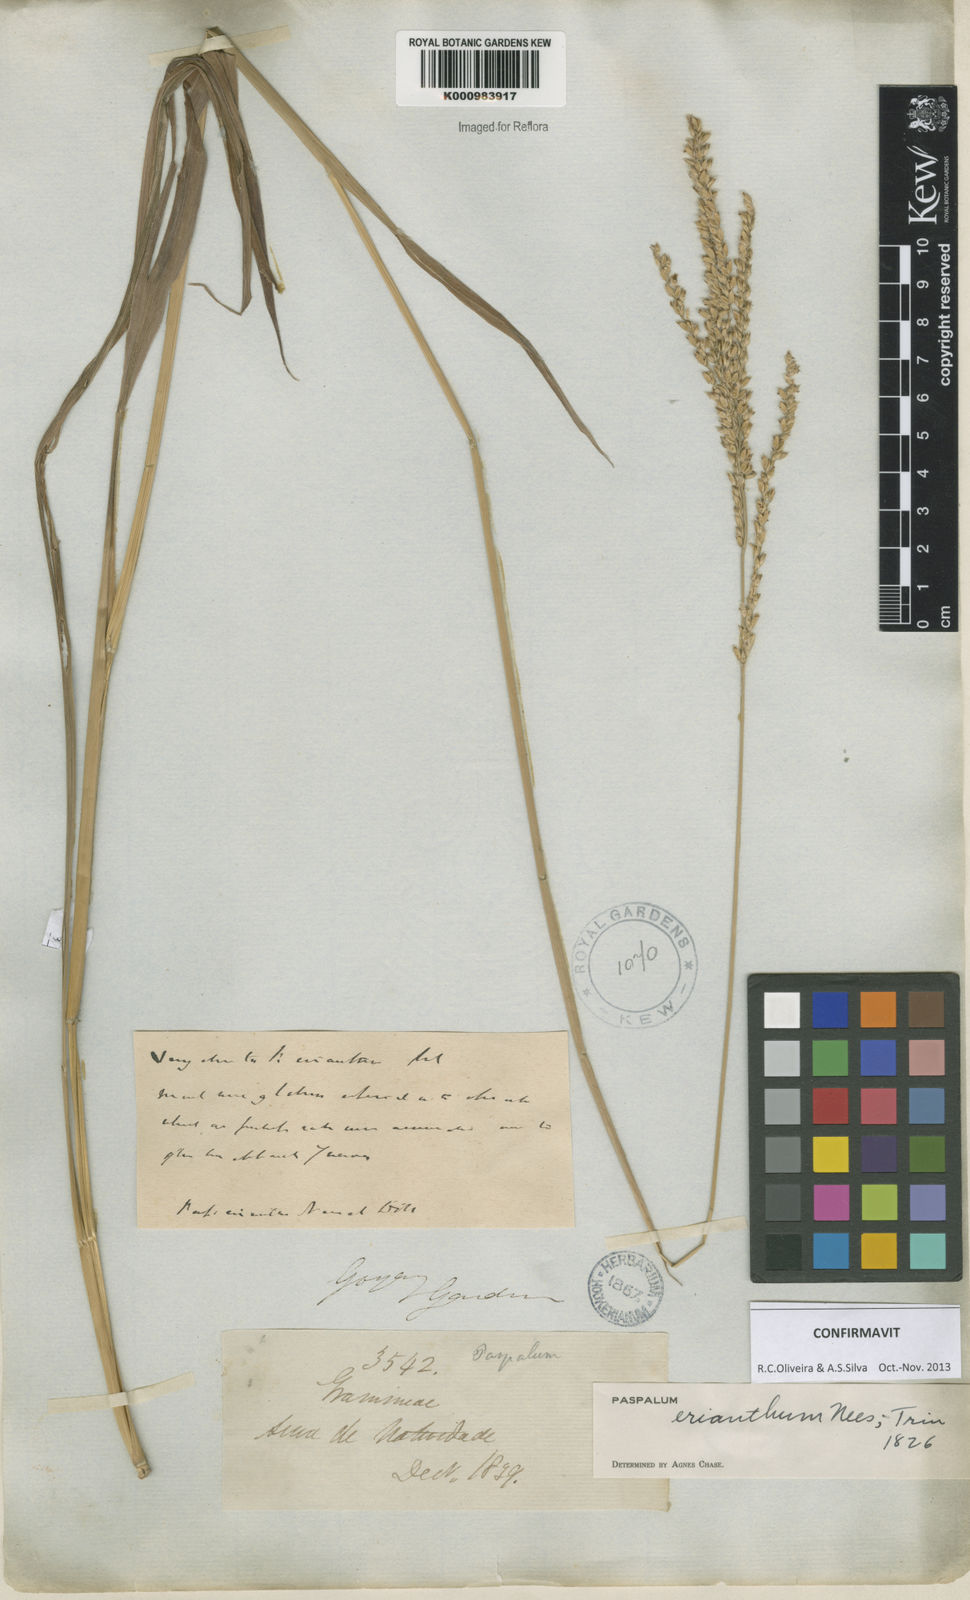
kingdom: Plantae
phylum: Tracheophyta
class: Liliopsida
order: Poales
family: Poaceae
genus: Paspalum
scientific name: Paspalum erianthum
